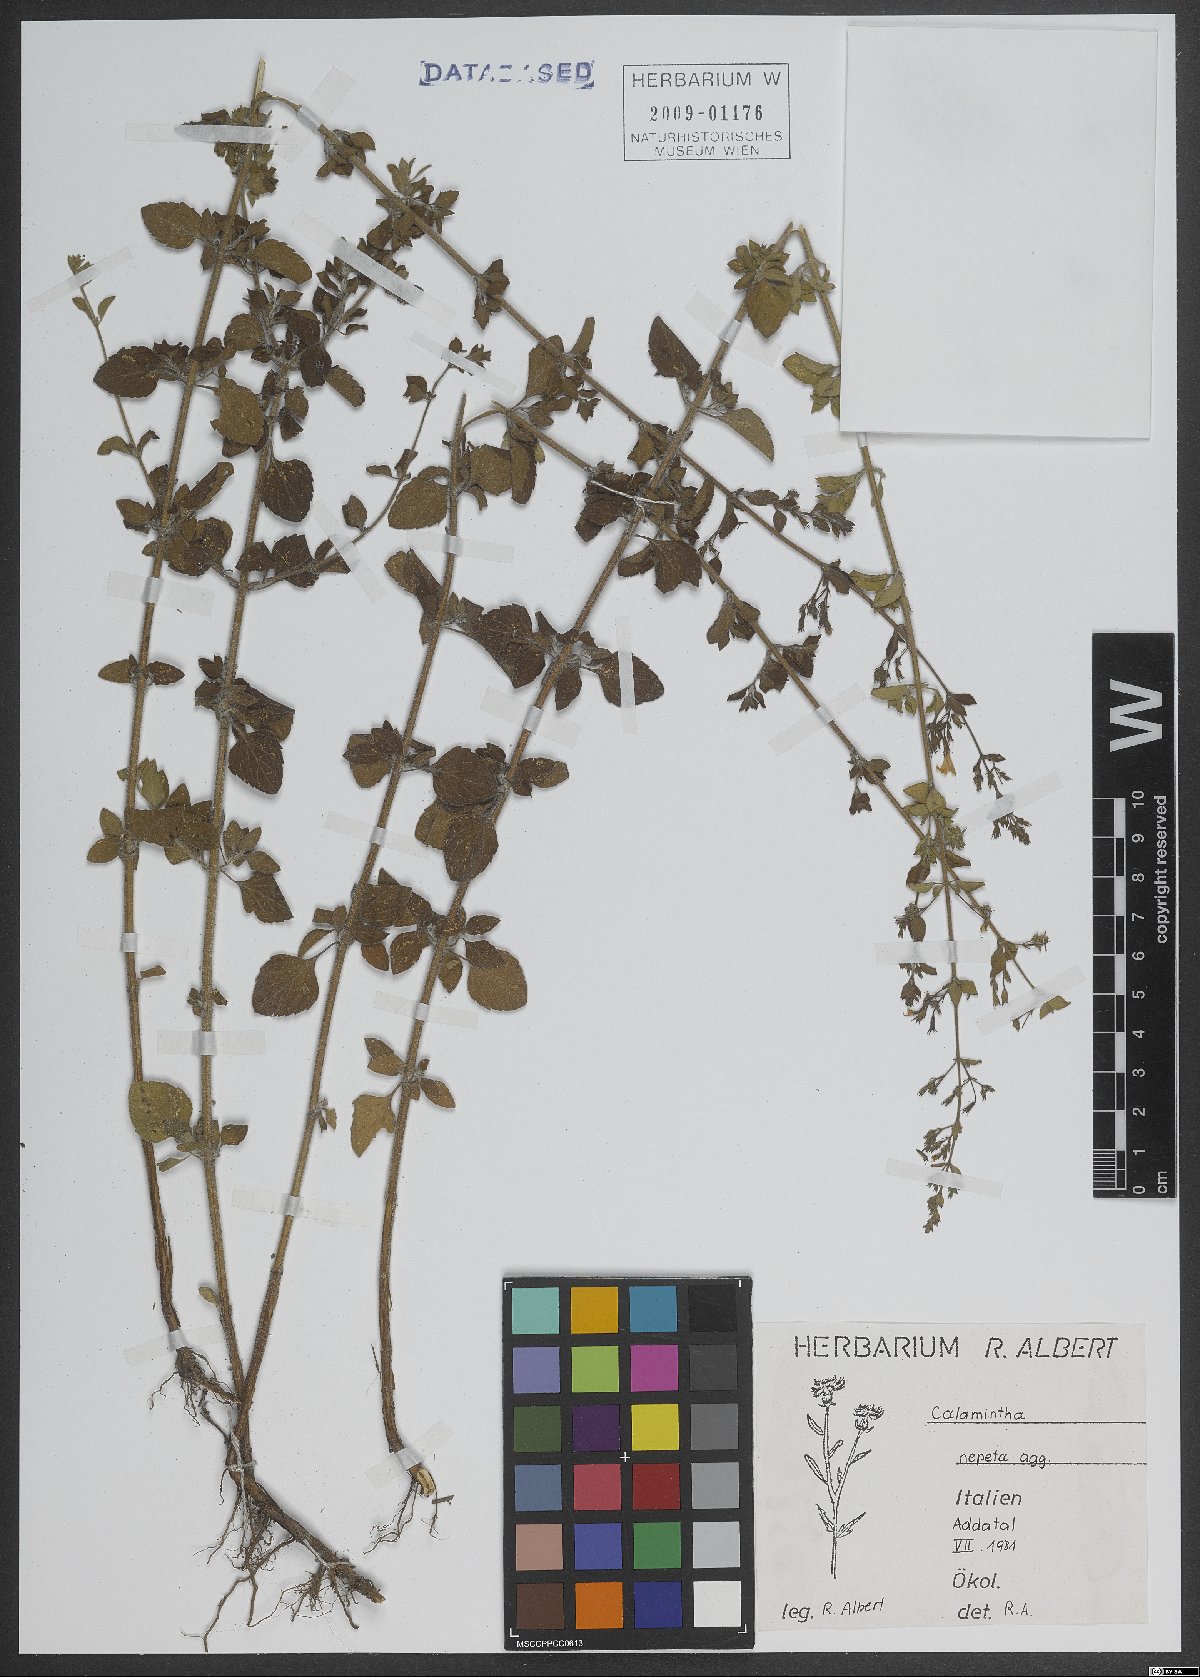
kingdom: Plantae
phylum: Tracheophyta
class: Magnoliopsida
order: Lamiales
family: Lamiaceae
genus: Clinopodium
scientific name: Clinopodium nepeta
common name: Lesser calamint
